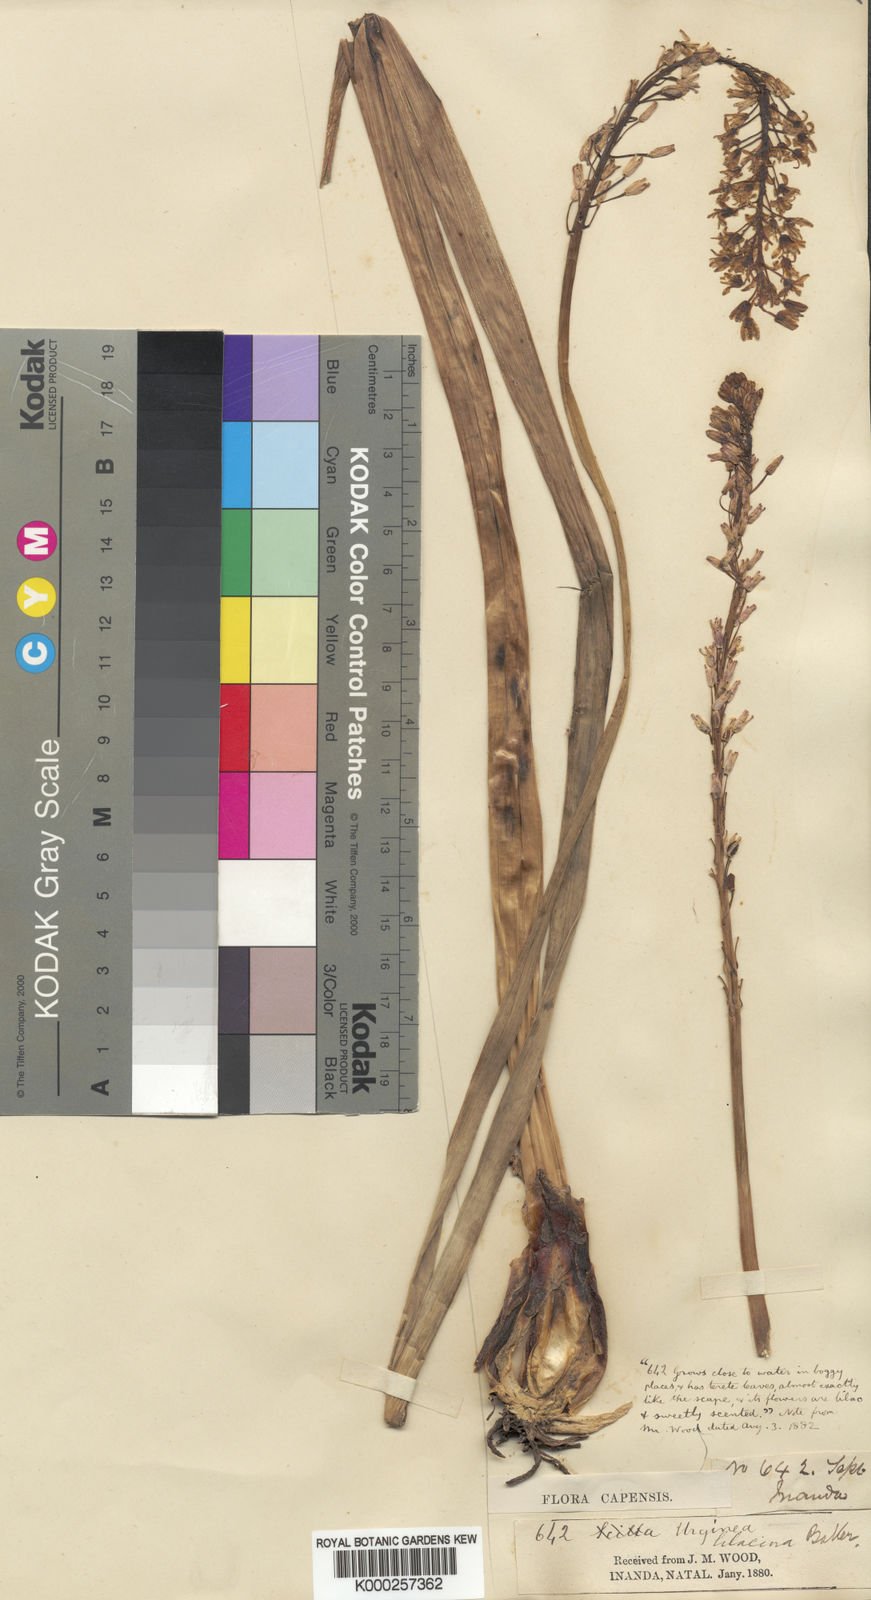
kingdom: Plantae
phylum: Tracheophyta
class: Liliopsida
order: Asparagales
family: Asparagaceae
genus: Drimia
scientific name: Drimia macrocentra
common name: Natal slangkop
